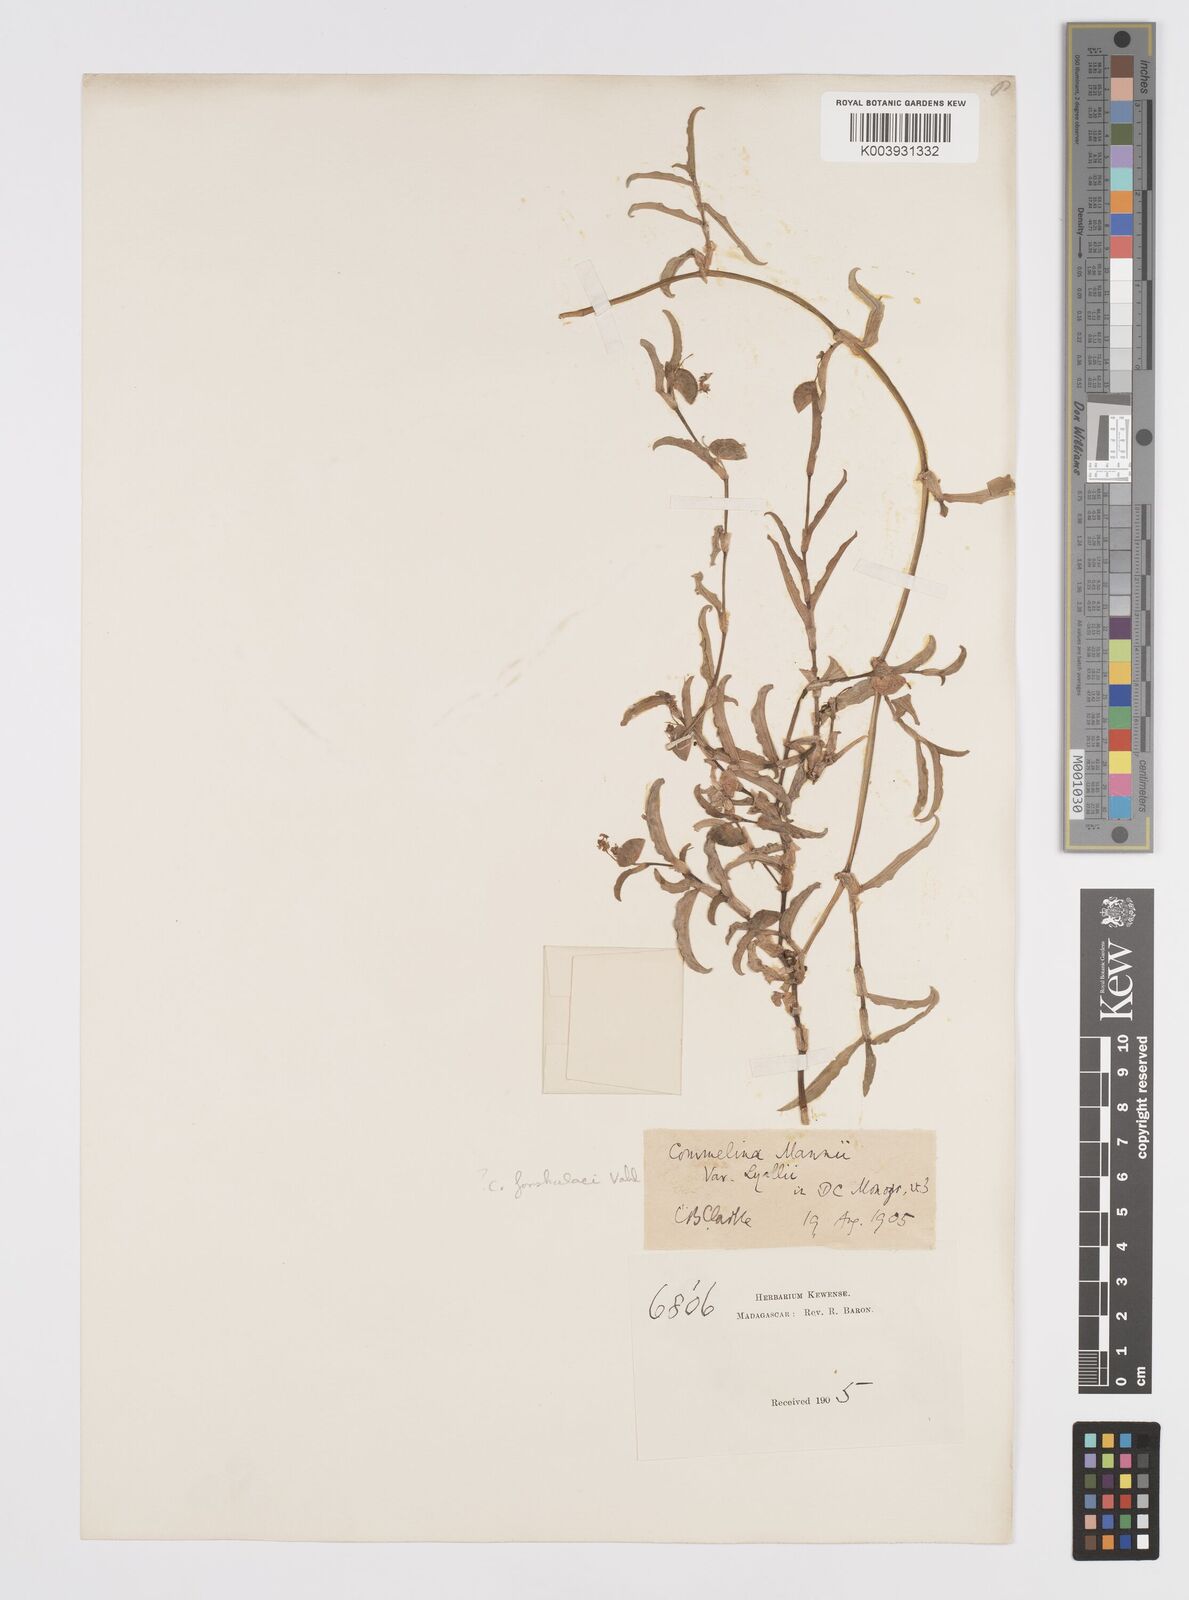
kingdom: Plantae
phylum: Tracheophyta
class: Liliopsida
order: Commelinales
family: Commelinaceae
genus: Commelina
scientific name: Commelina africana
